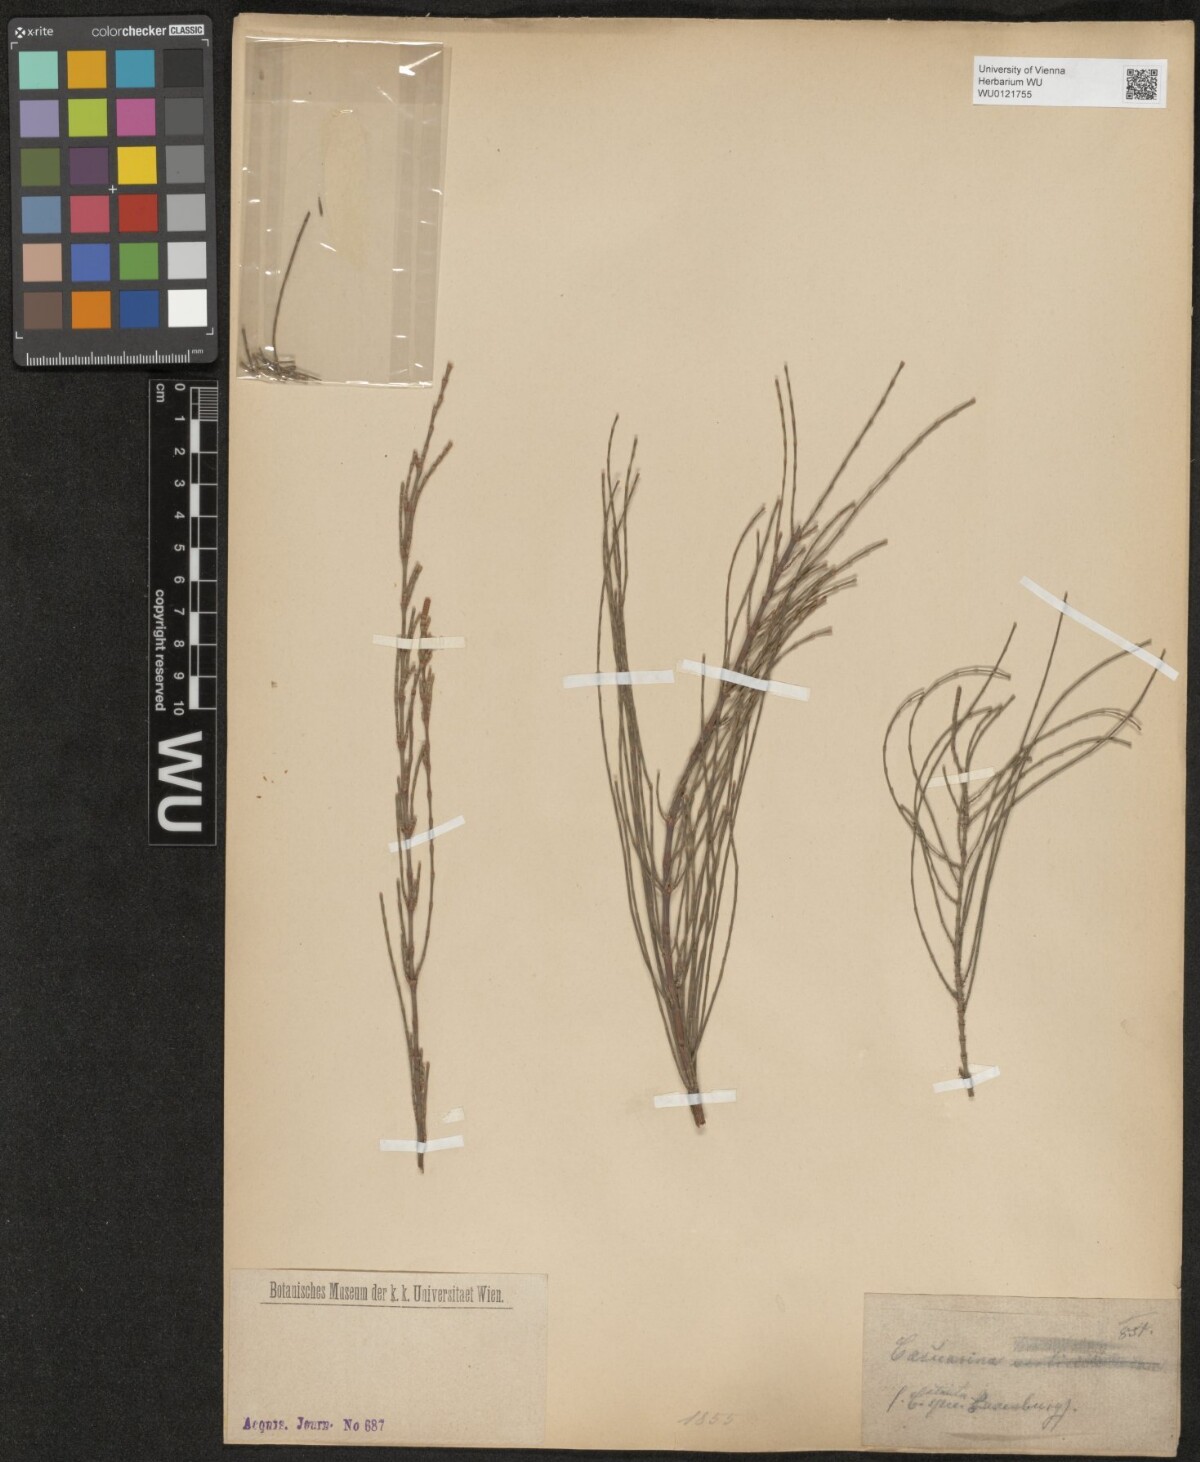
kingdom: Plantae
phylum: Tracheophyta
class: Magnoliopsida
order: Fagales
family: Casuarinaceae
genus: Casuarina
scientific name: Casuarina
